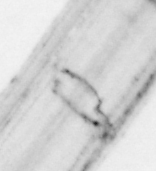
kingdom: Animalia
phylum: Chordata
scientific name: Chordata
